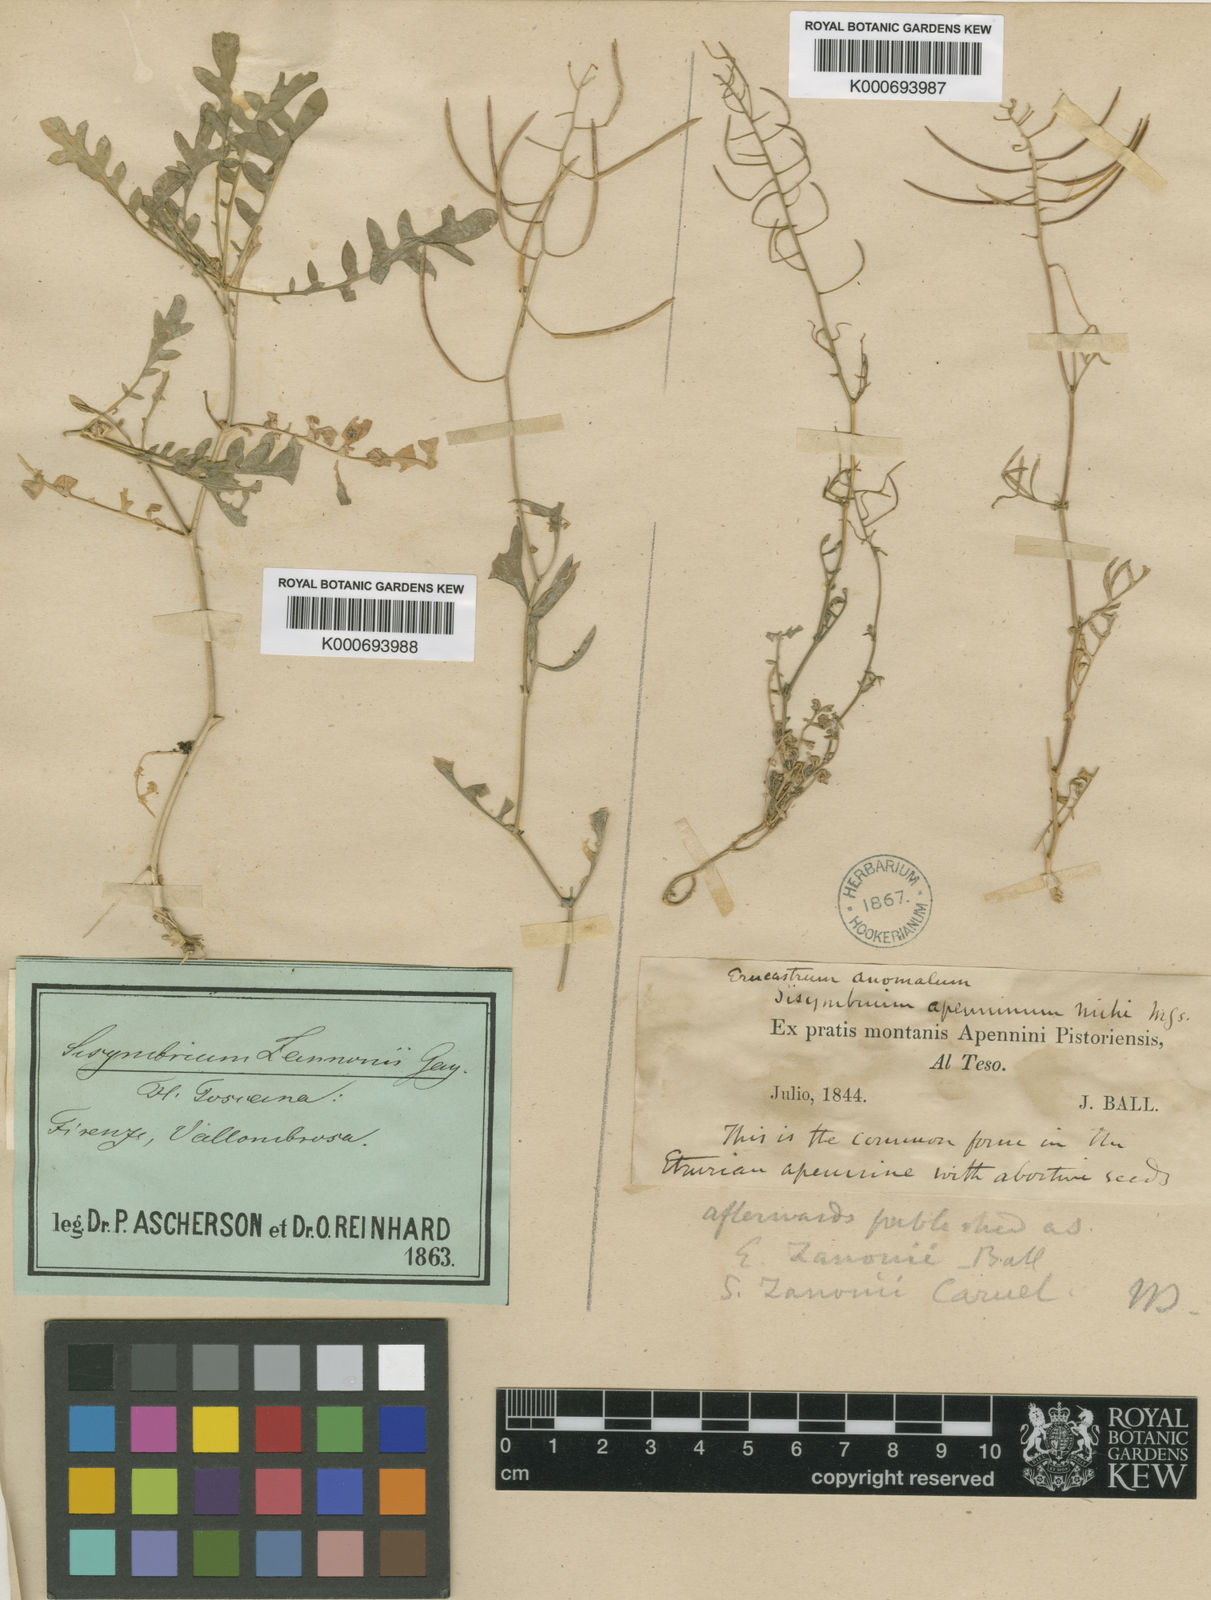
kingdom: Plantae
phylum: Tracheophyta
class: Magnoliopsida
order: Brassicales
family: Brassicaceae
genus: Murbeckiella
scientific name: Murbeckiella zanonii
